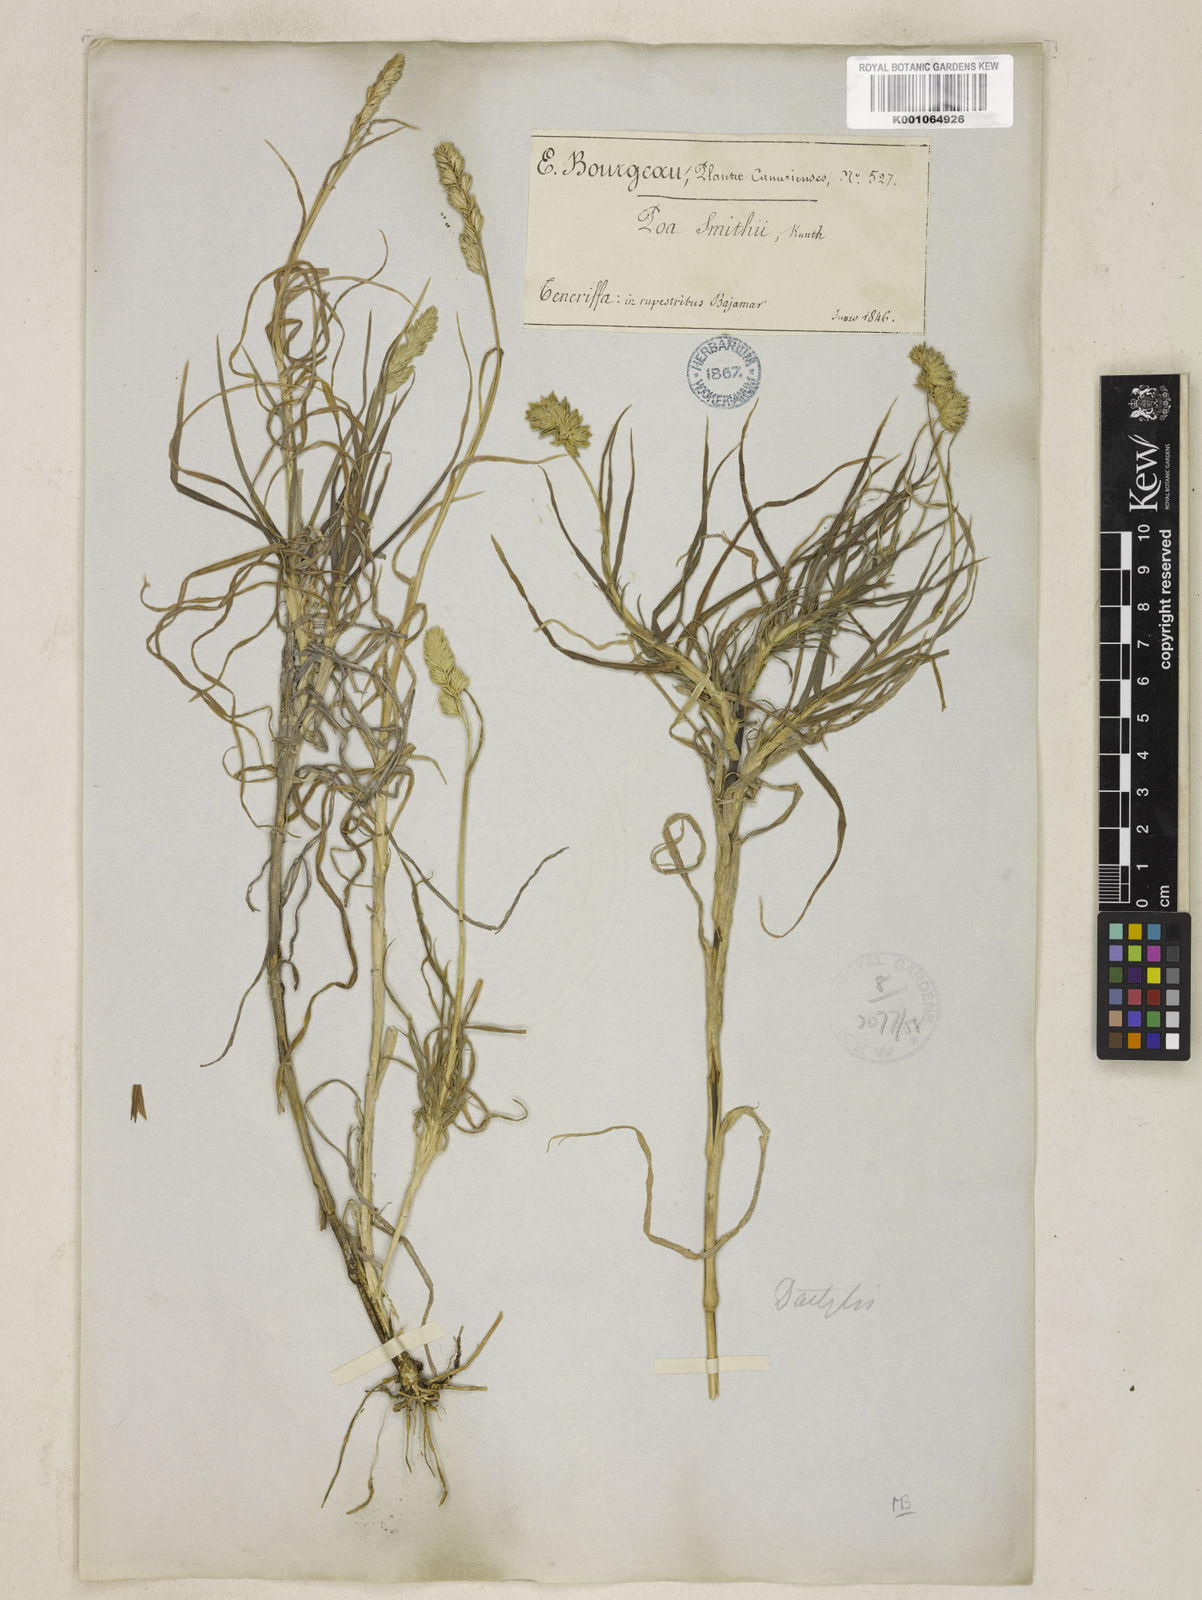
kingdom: Plantae
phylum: Tracheophyta
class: Liliopsida
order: Poales
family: Poaceae
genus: Dactylis
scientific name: Dactylis glomerata
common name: Orchardgrass
